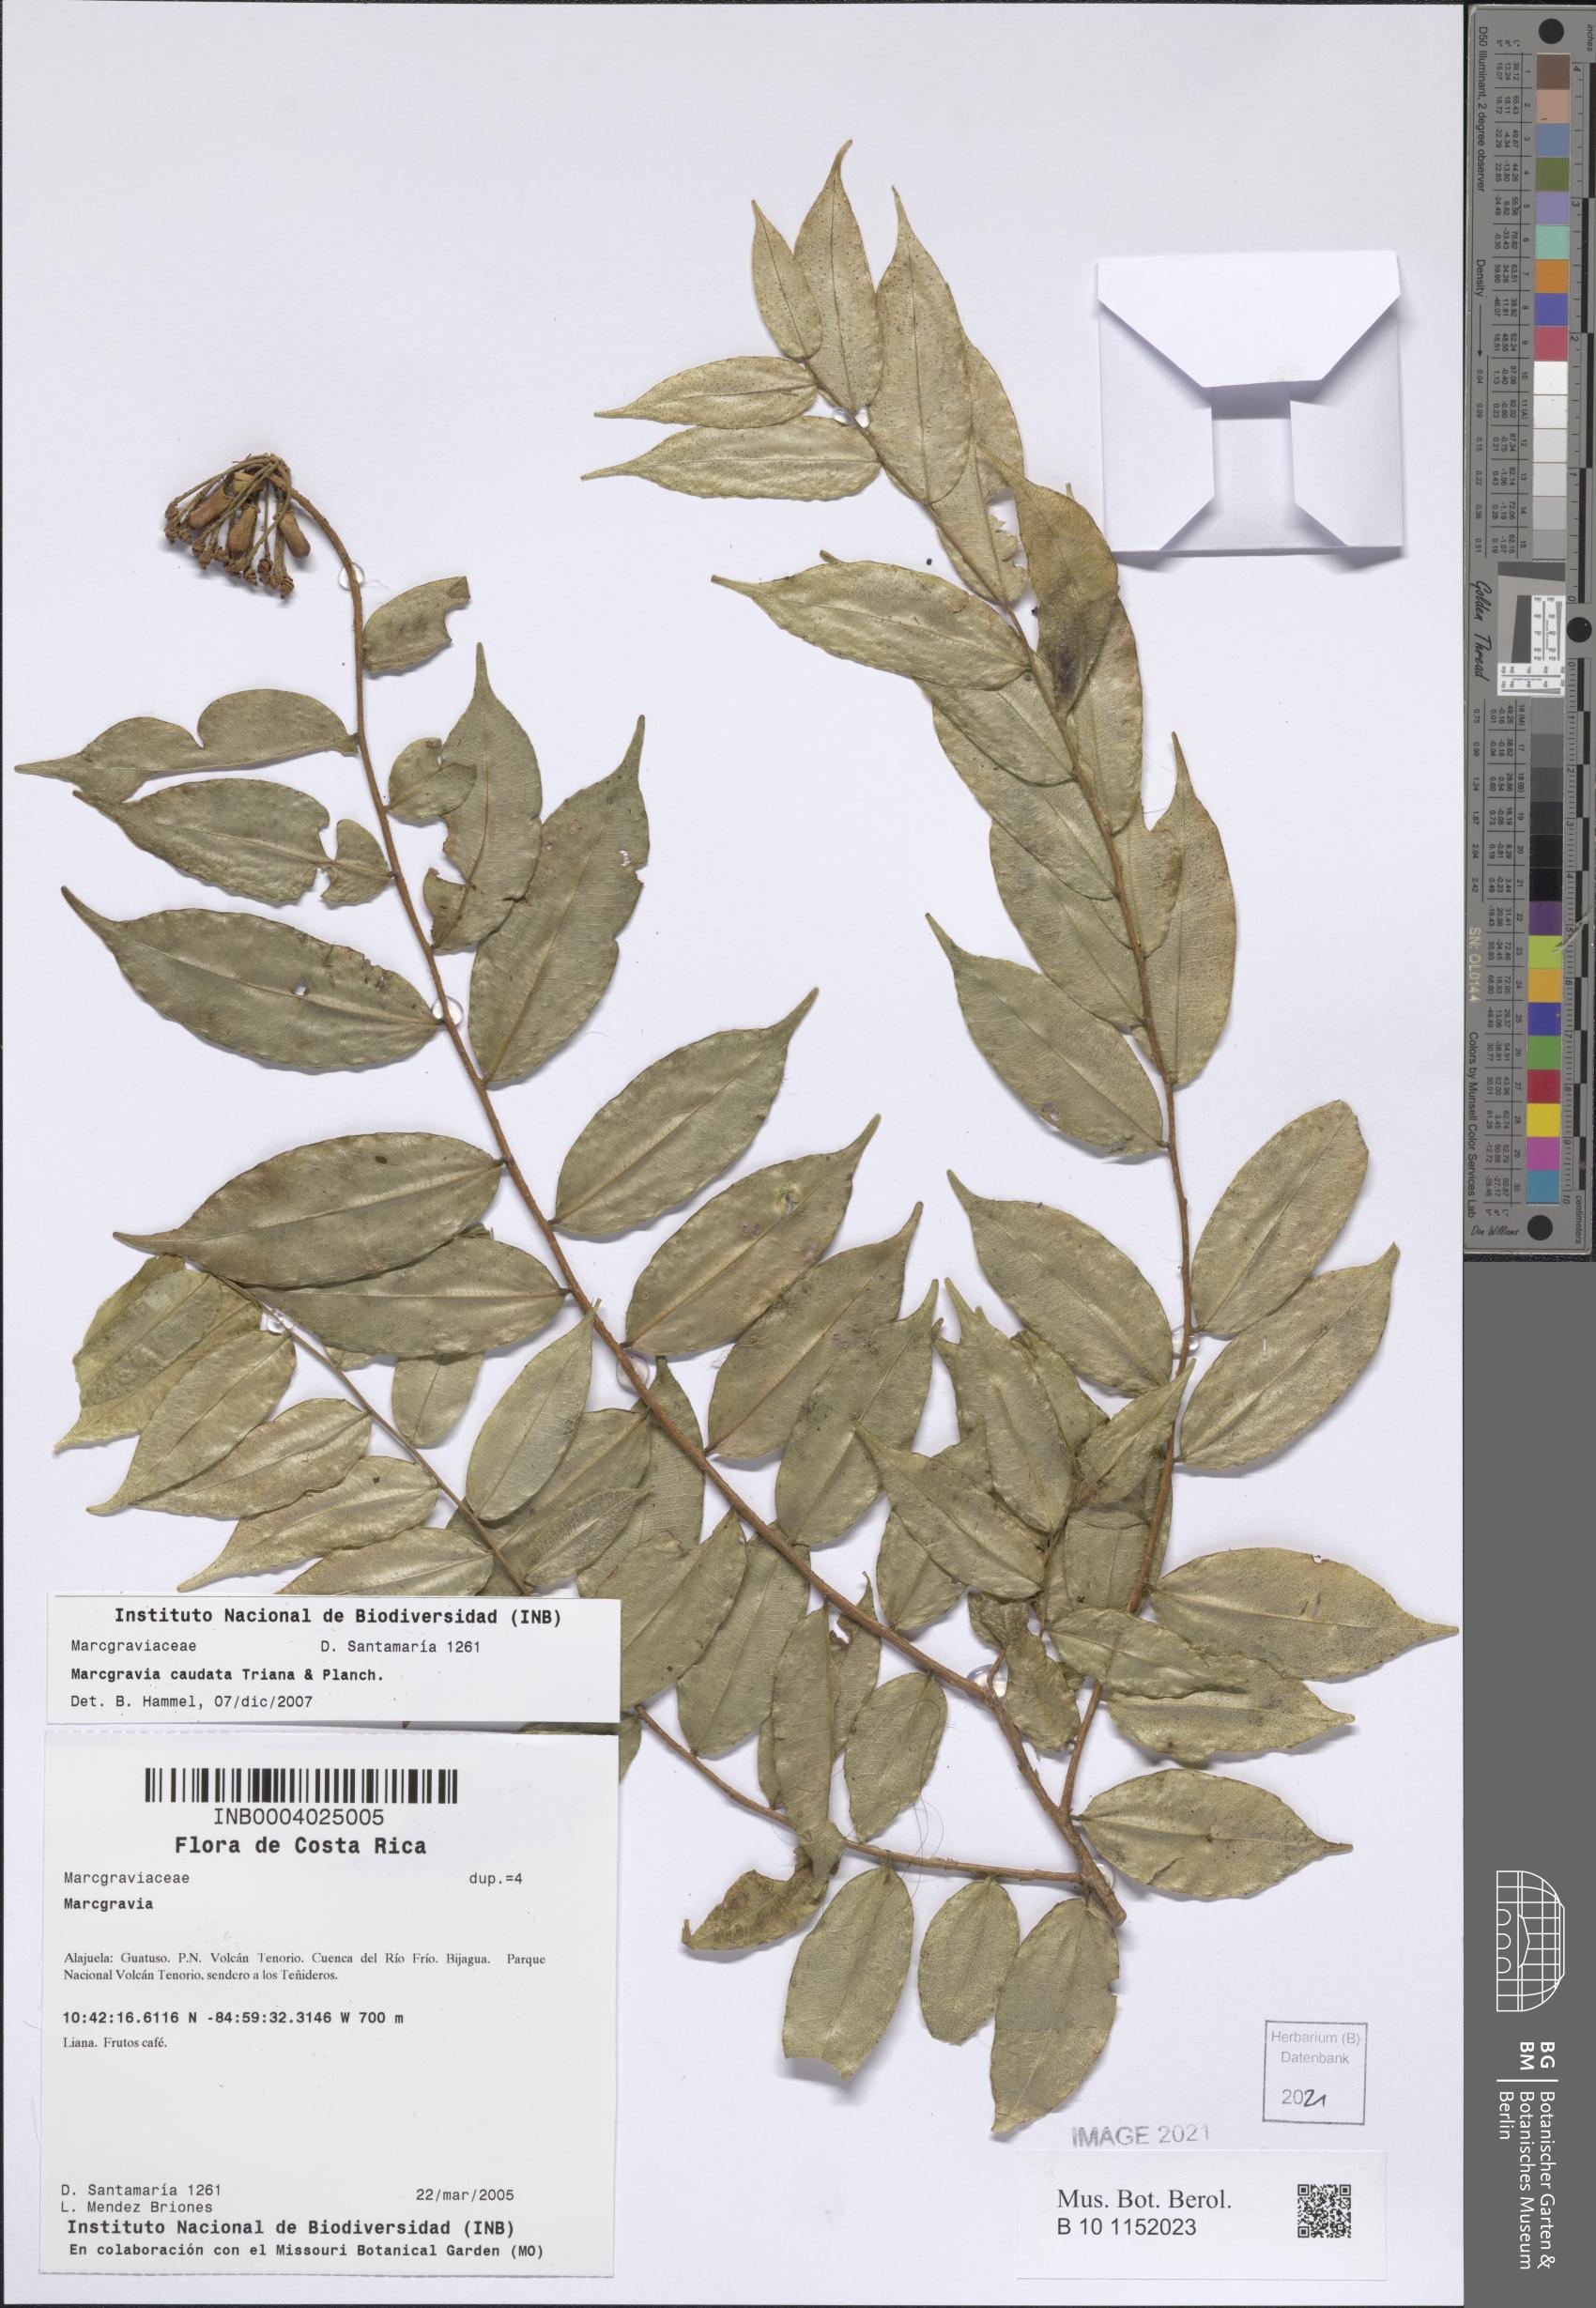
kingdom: Plantae
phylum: Tracheophyta
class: Magnoliopsida
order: Ericales
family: Marcgraviaceae
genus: Marcgravia
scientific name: Marcgravia caudata
